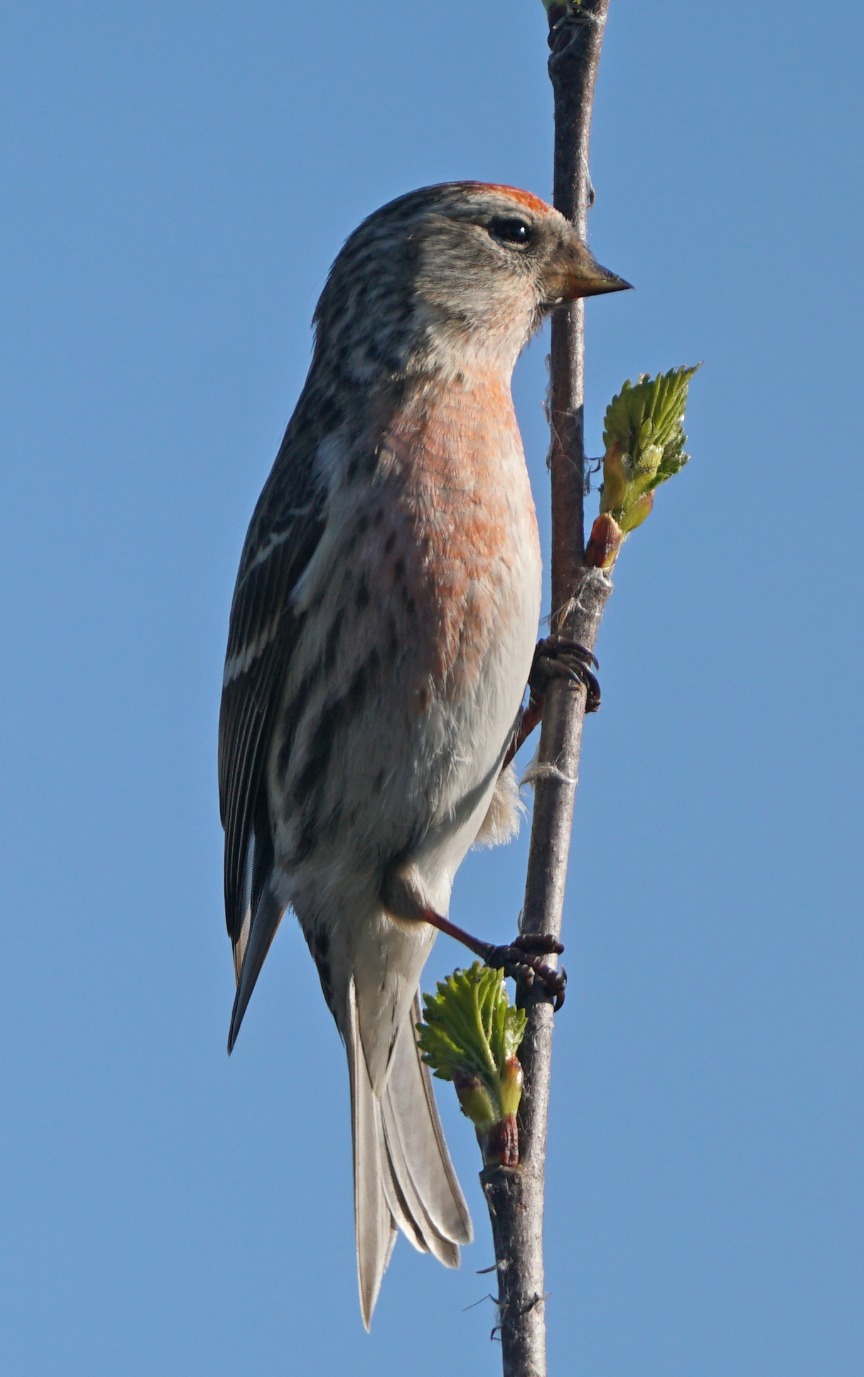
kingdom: Animalia
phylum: Chordata
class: Aves
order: Passeriformes
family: Fringillidae
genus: Acanthis
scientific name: Acanthis flammea
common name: Nordlig gråsisken
